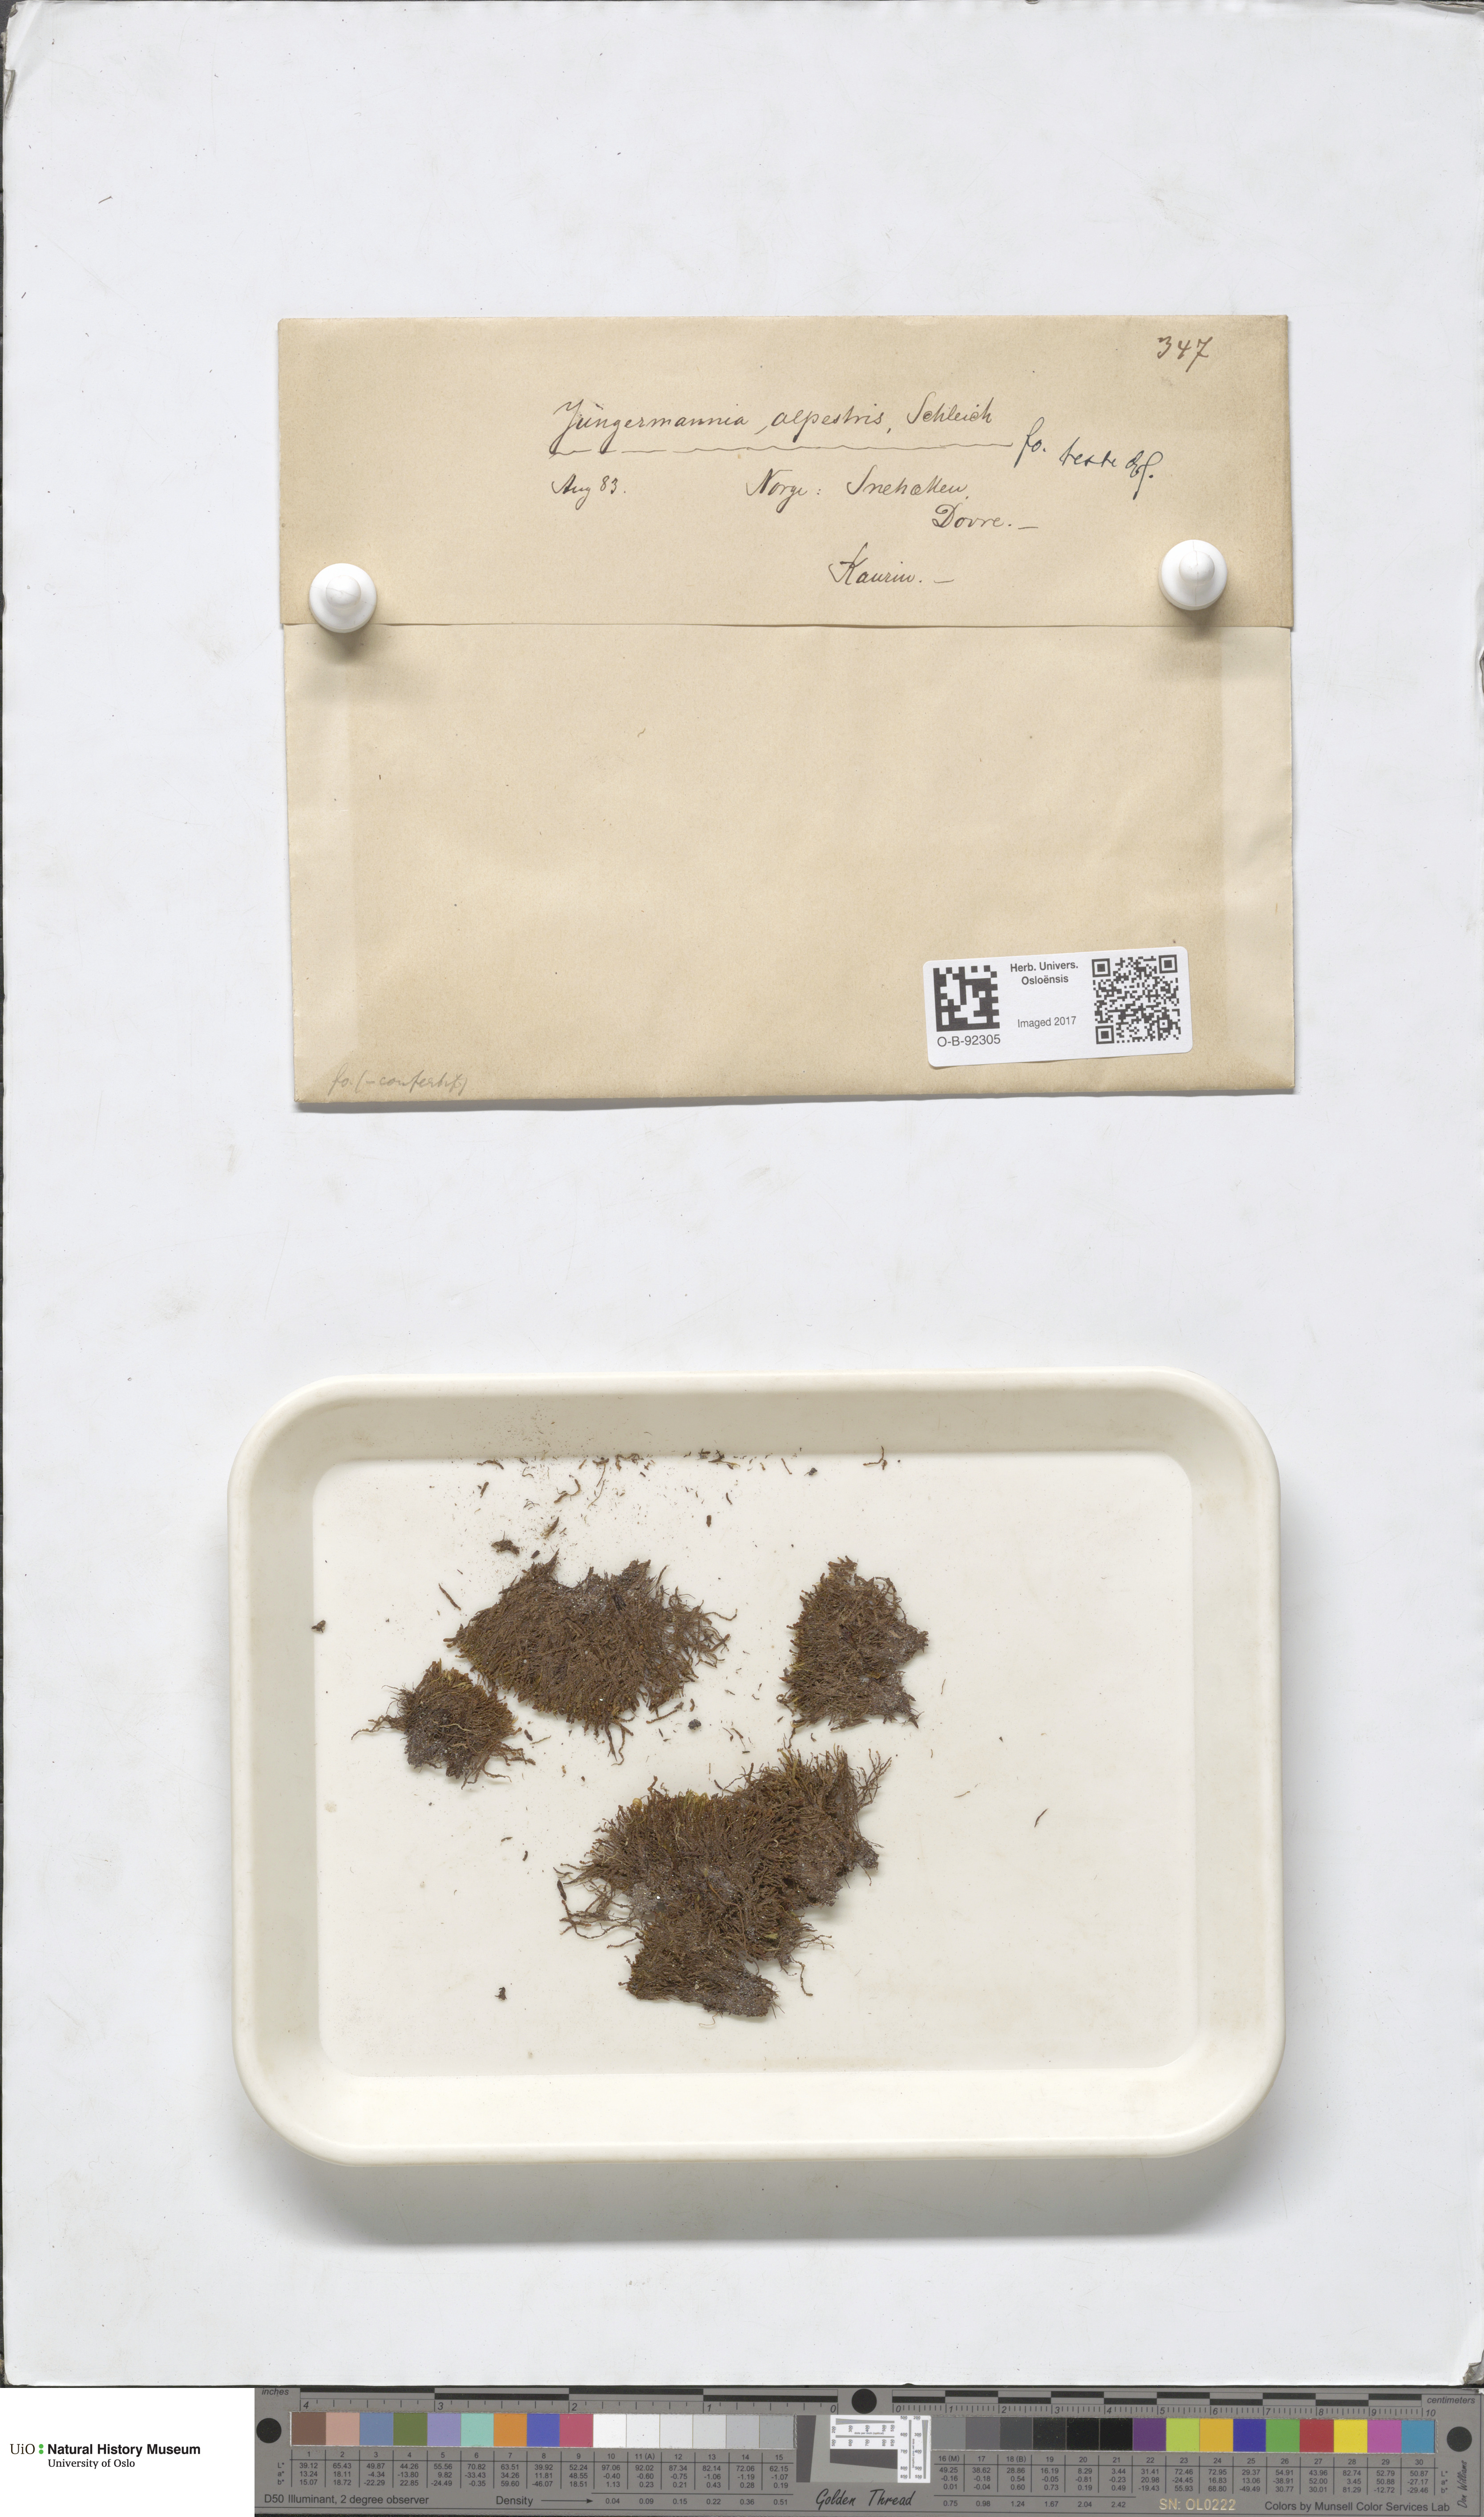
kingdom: Plantae
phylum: Marchantiophyta
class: Jungermanniopsida
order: Jungermanniales
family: Anastrophyllaceae
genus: Barbilophozia
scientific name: Barbilophozia sudetica
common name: Hill notchwort
